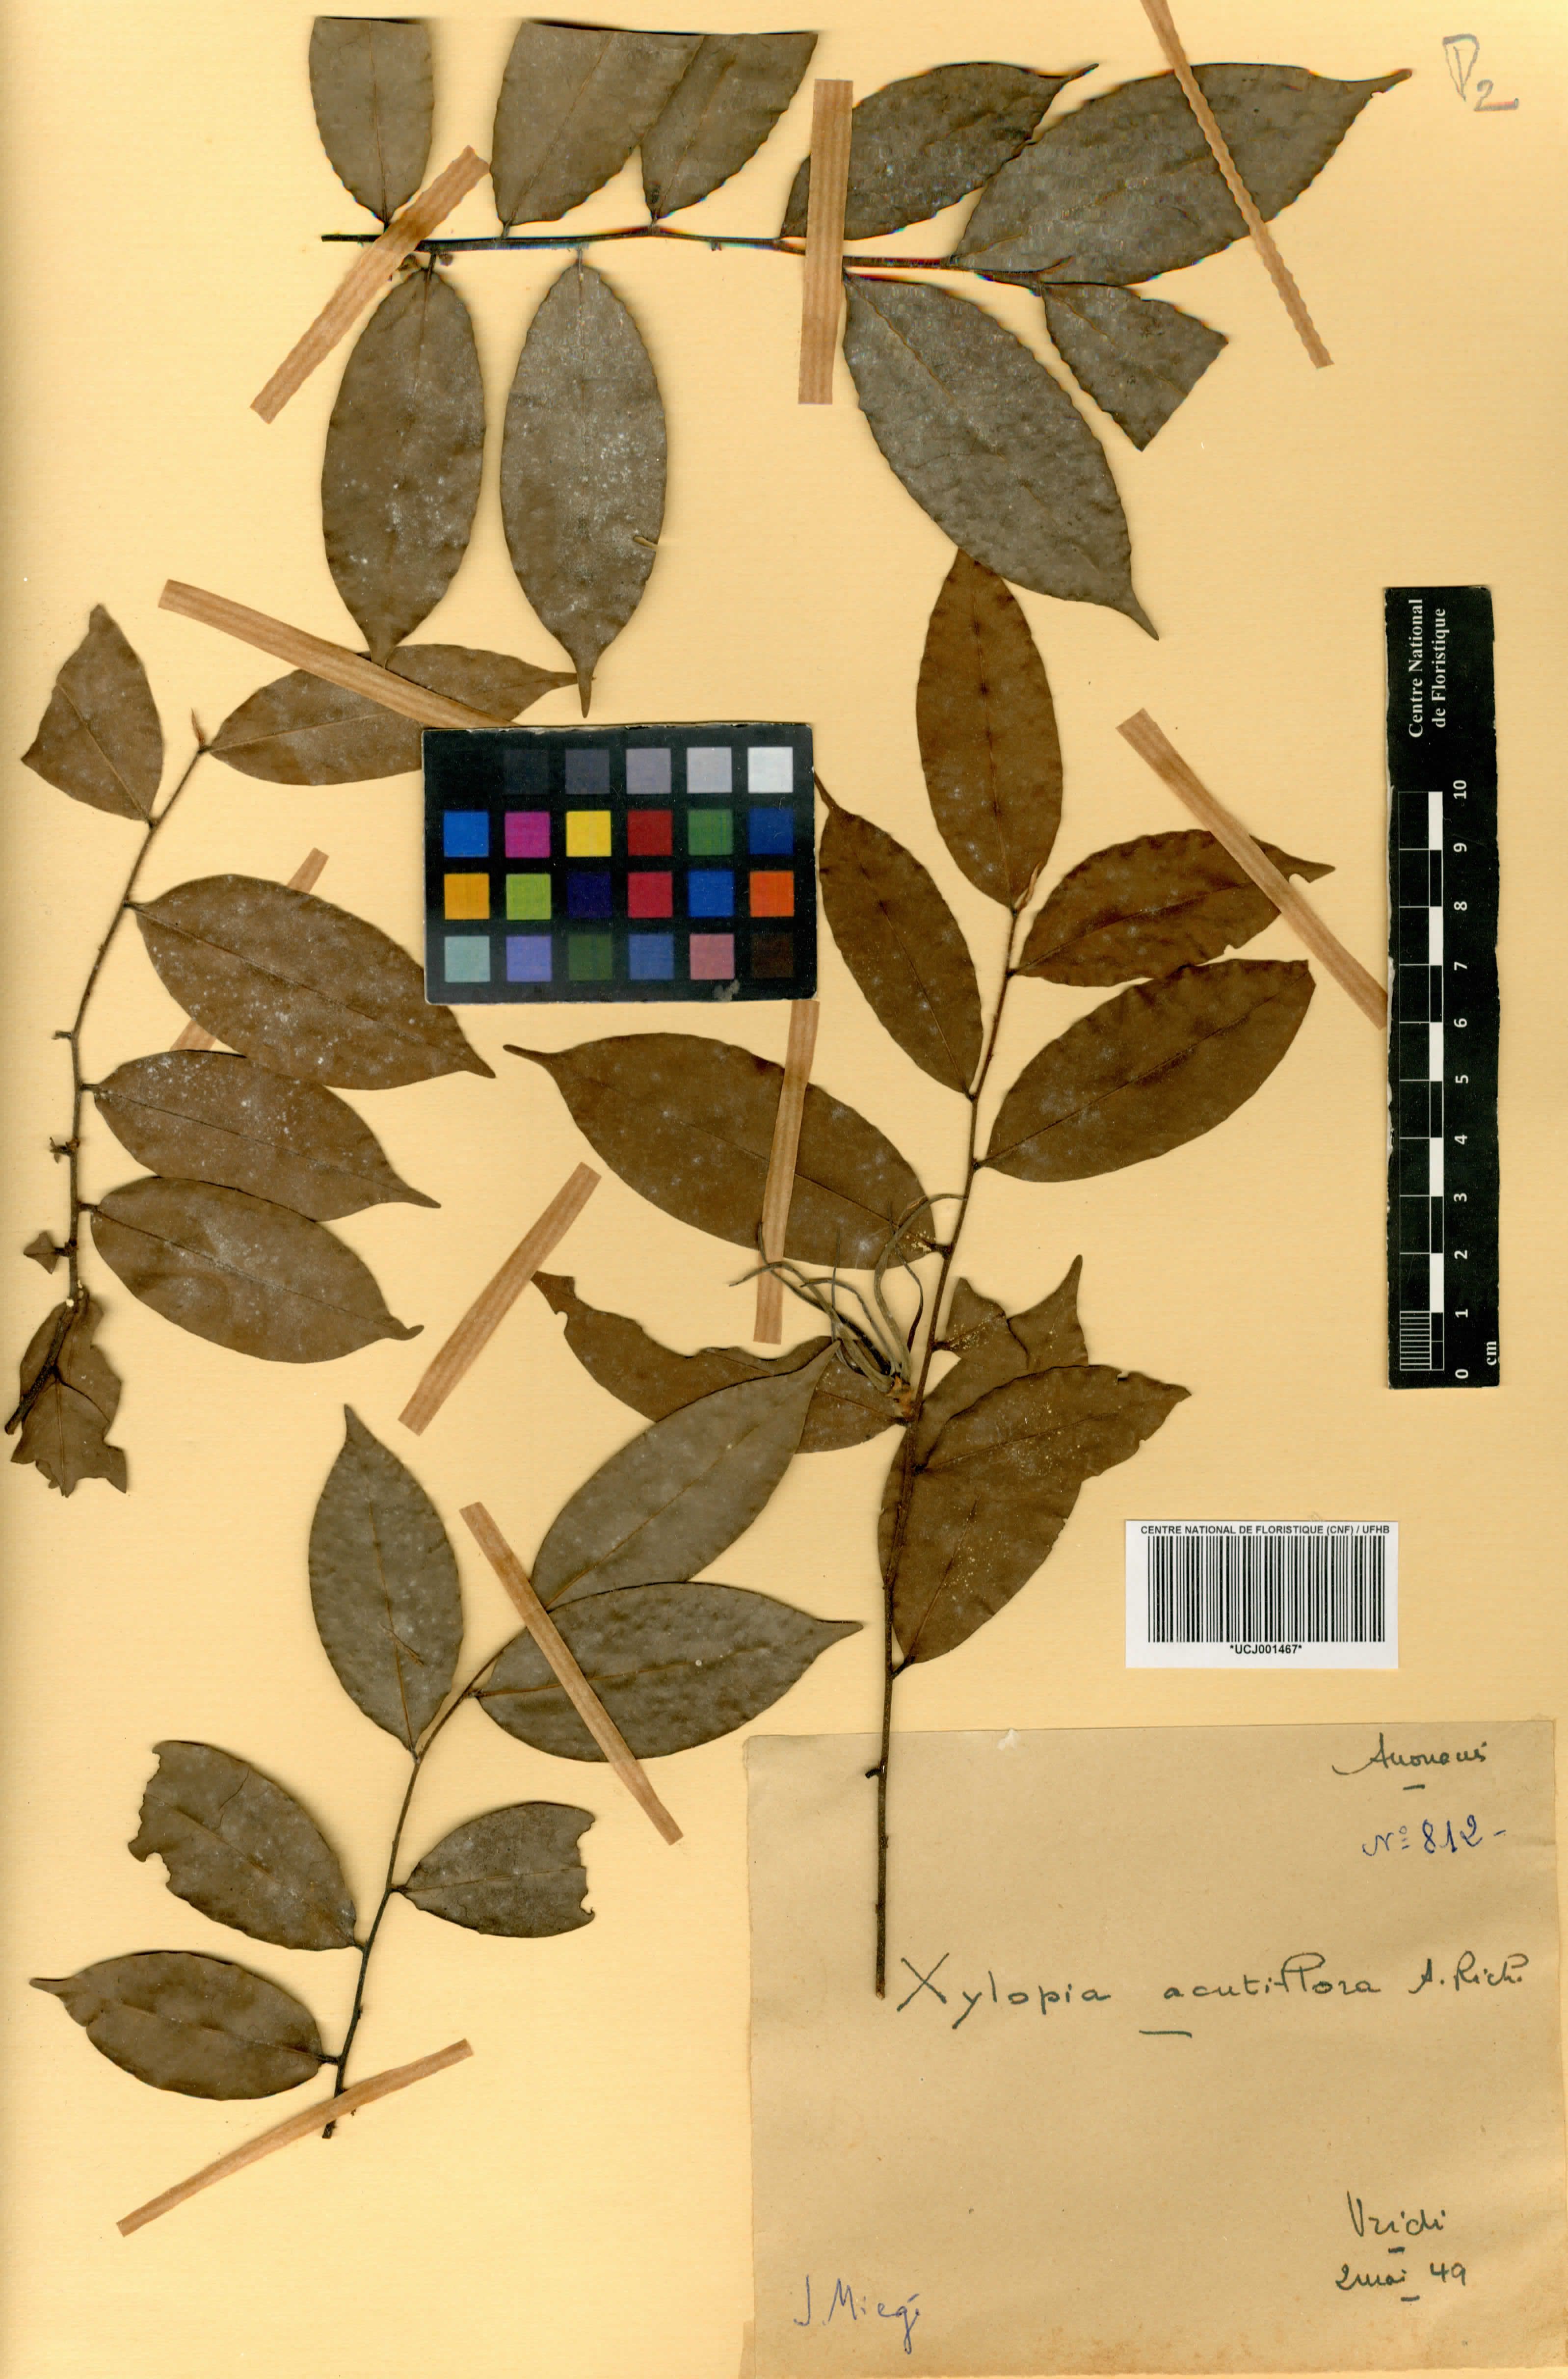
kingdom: Plantae
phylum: Tracheophyta
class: Magnoliopsida
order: Magnoliales
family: Annonaceae
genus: Xylopia
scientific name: Xylopia acutiflora
